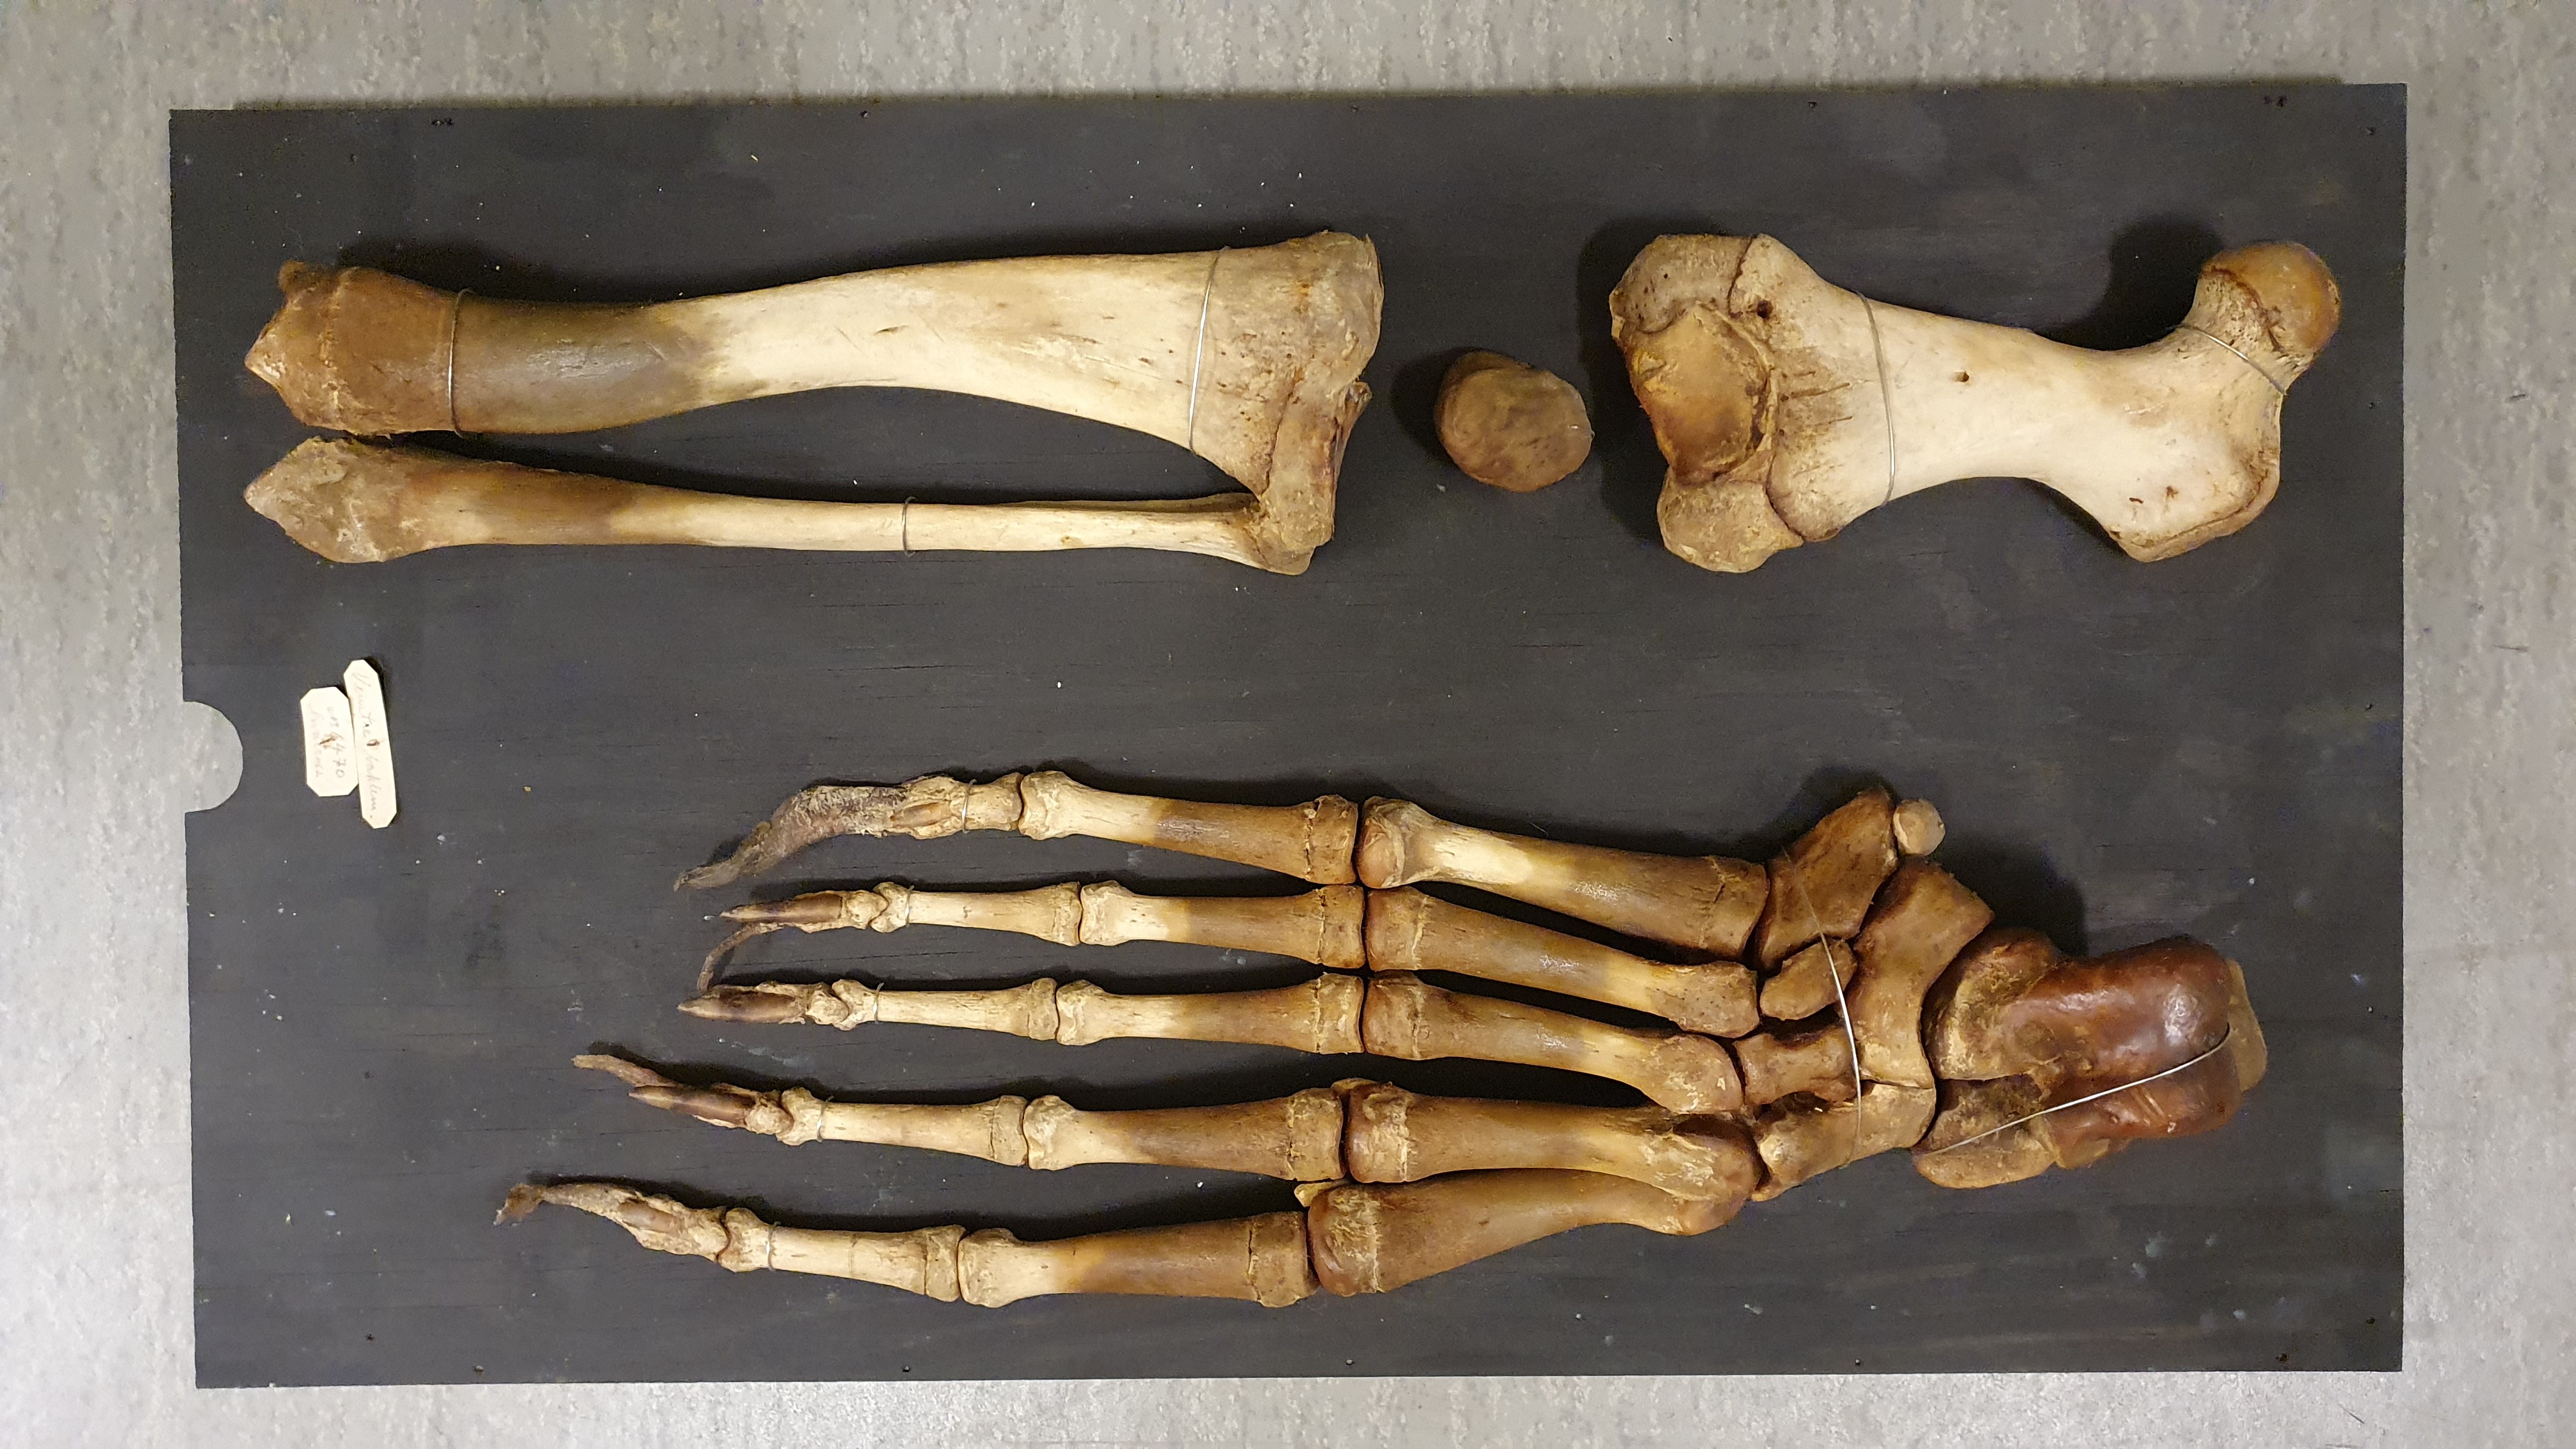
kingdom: Animalia
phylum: Chordata
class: Mammalia
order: Carnivora
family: Odobenidae
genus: Odobenus
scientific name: Odobenus rosmarus
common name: Walrus
